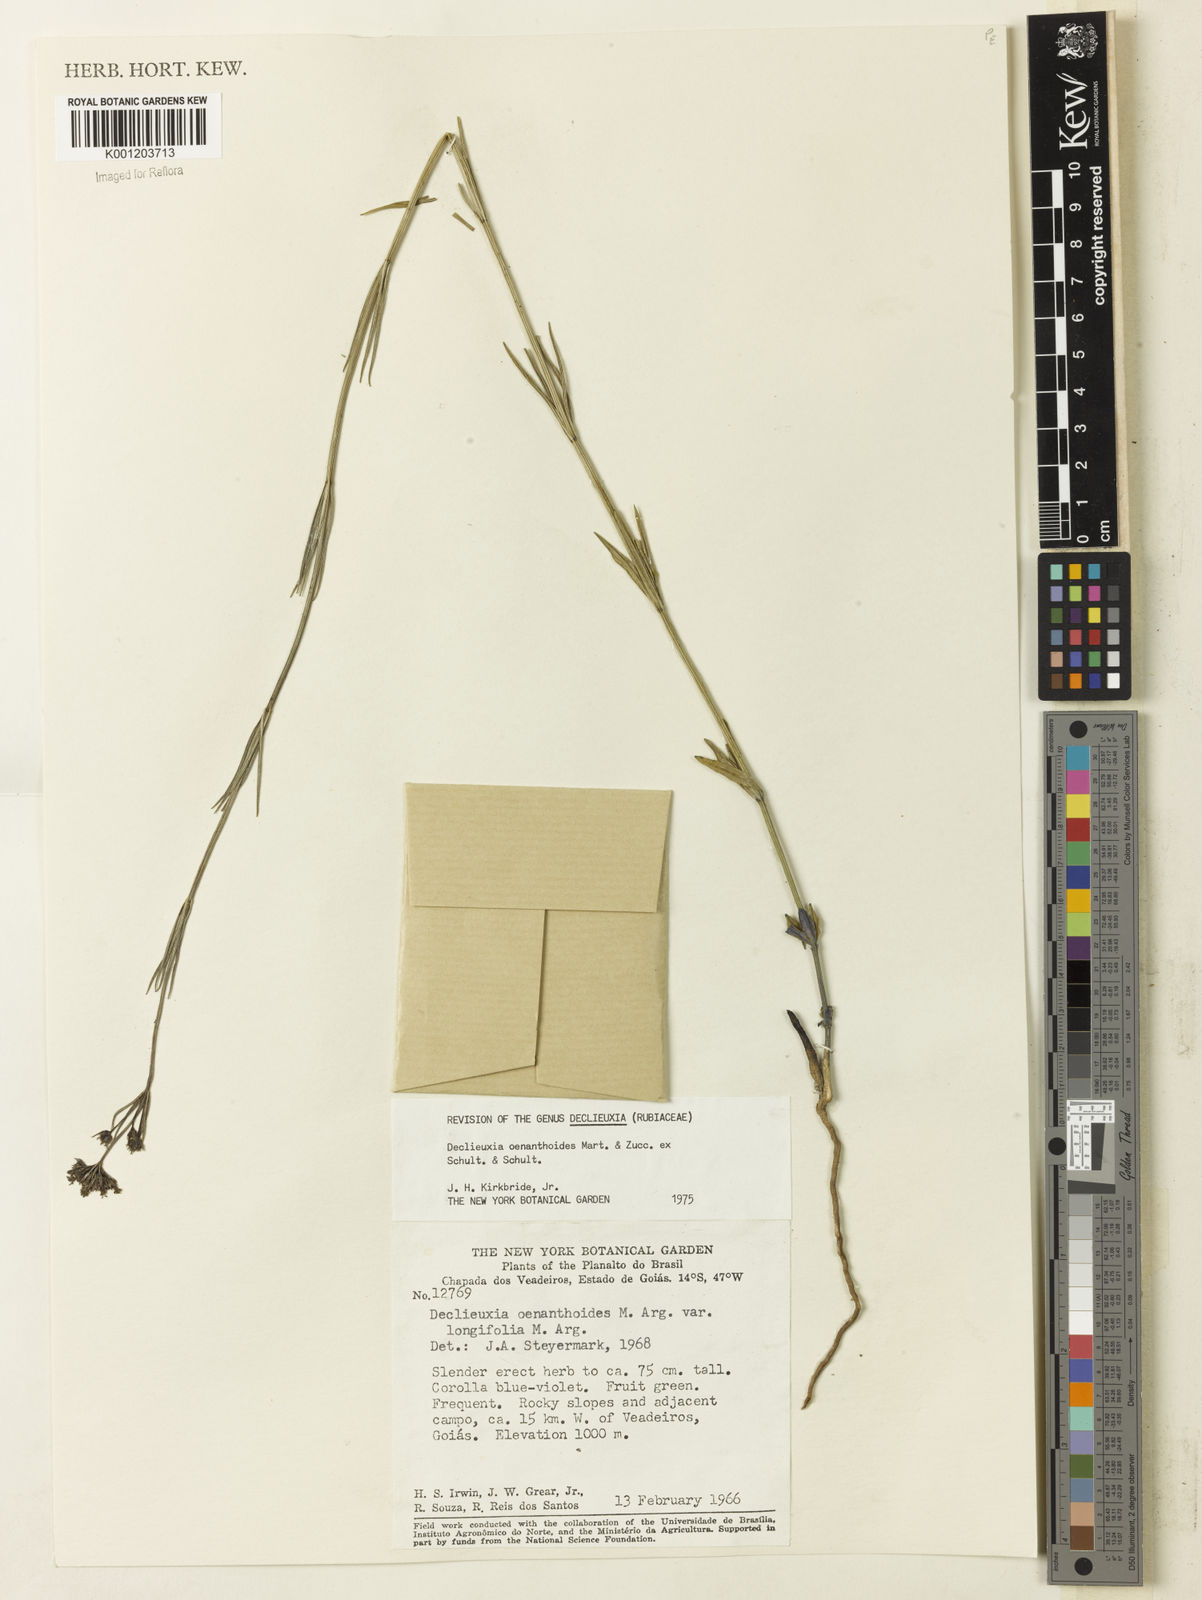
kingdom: Plantae
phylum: Tracheophyta
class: Magnoliopsida
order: Gentianales
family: Rubiaceae
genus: Declieuxia
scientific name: Declieuxia
